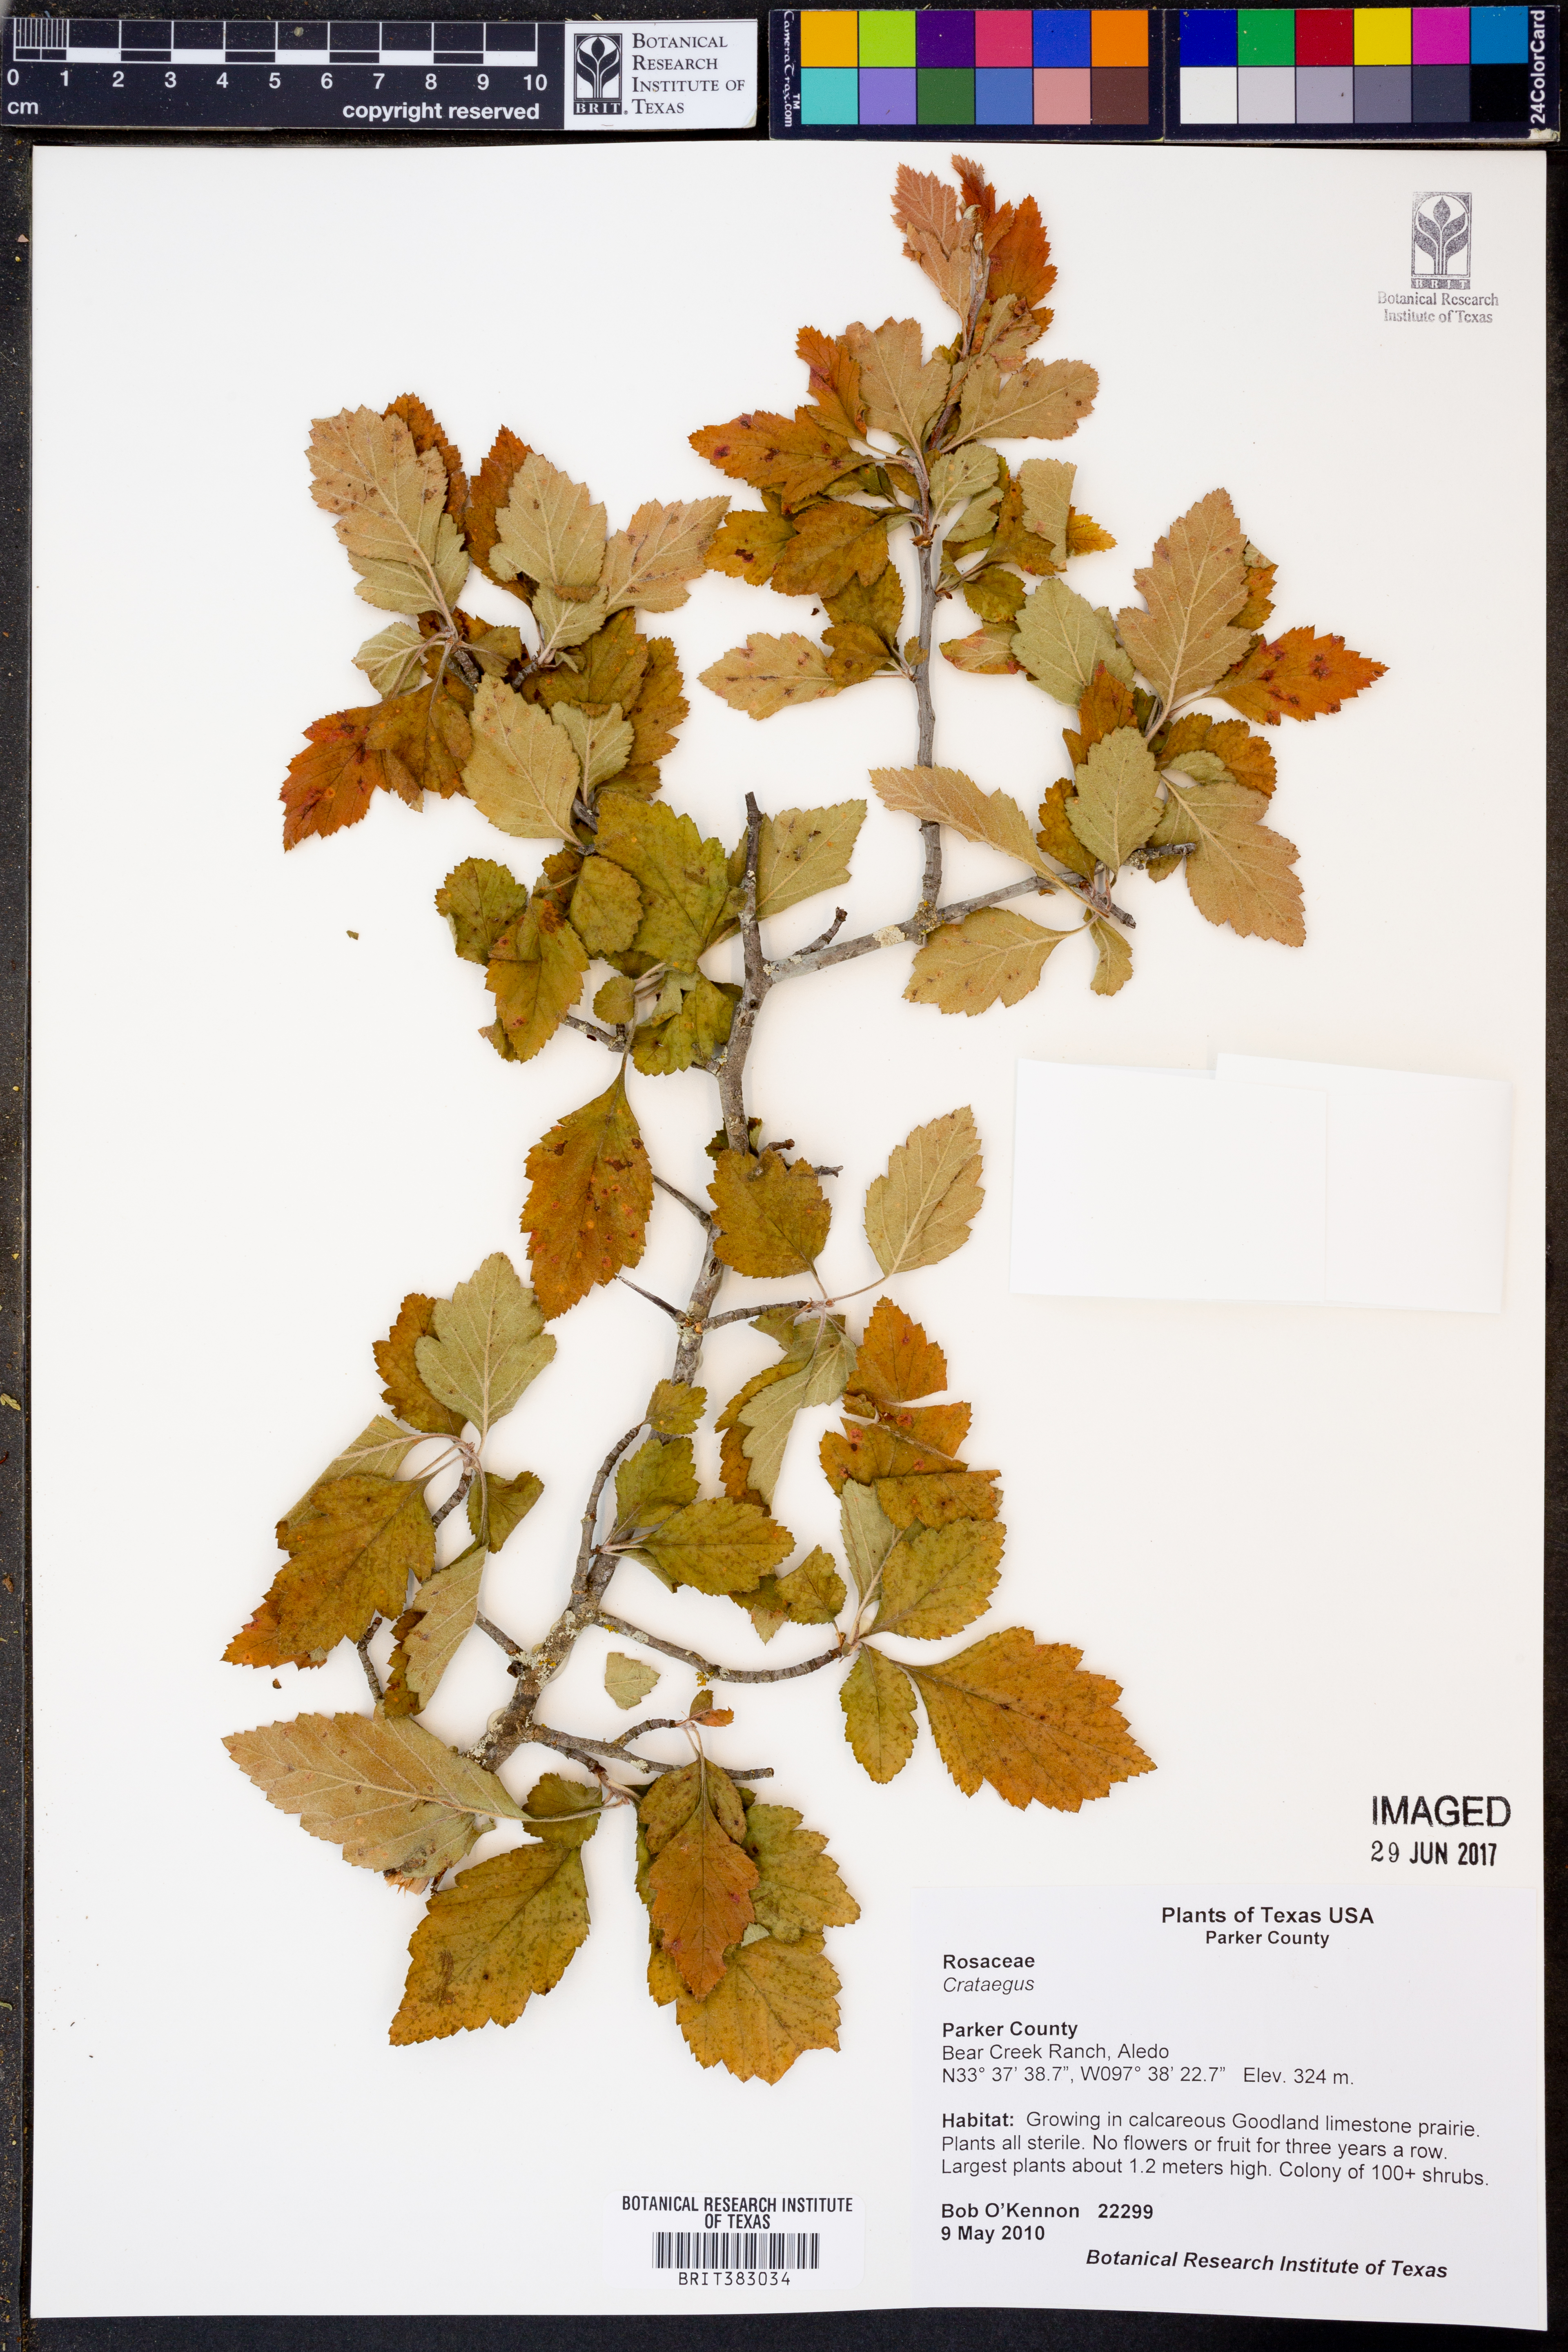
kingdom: Plantae
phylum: Tracheophyta
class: Magnoliopsida
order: Rosales
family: Rosaceae
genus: Crataegus
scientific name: Crataegus
